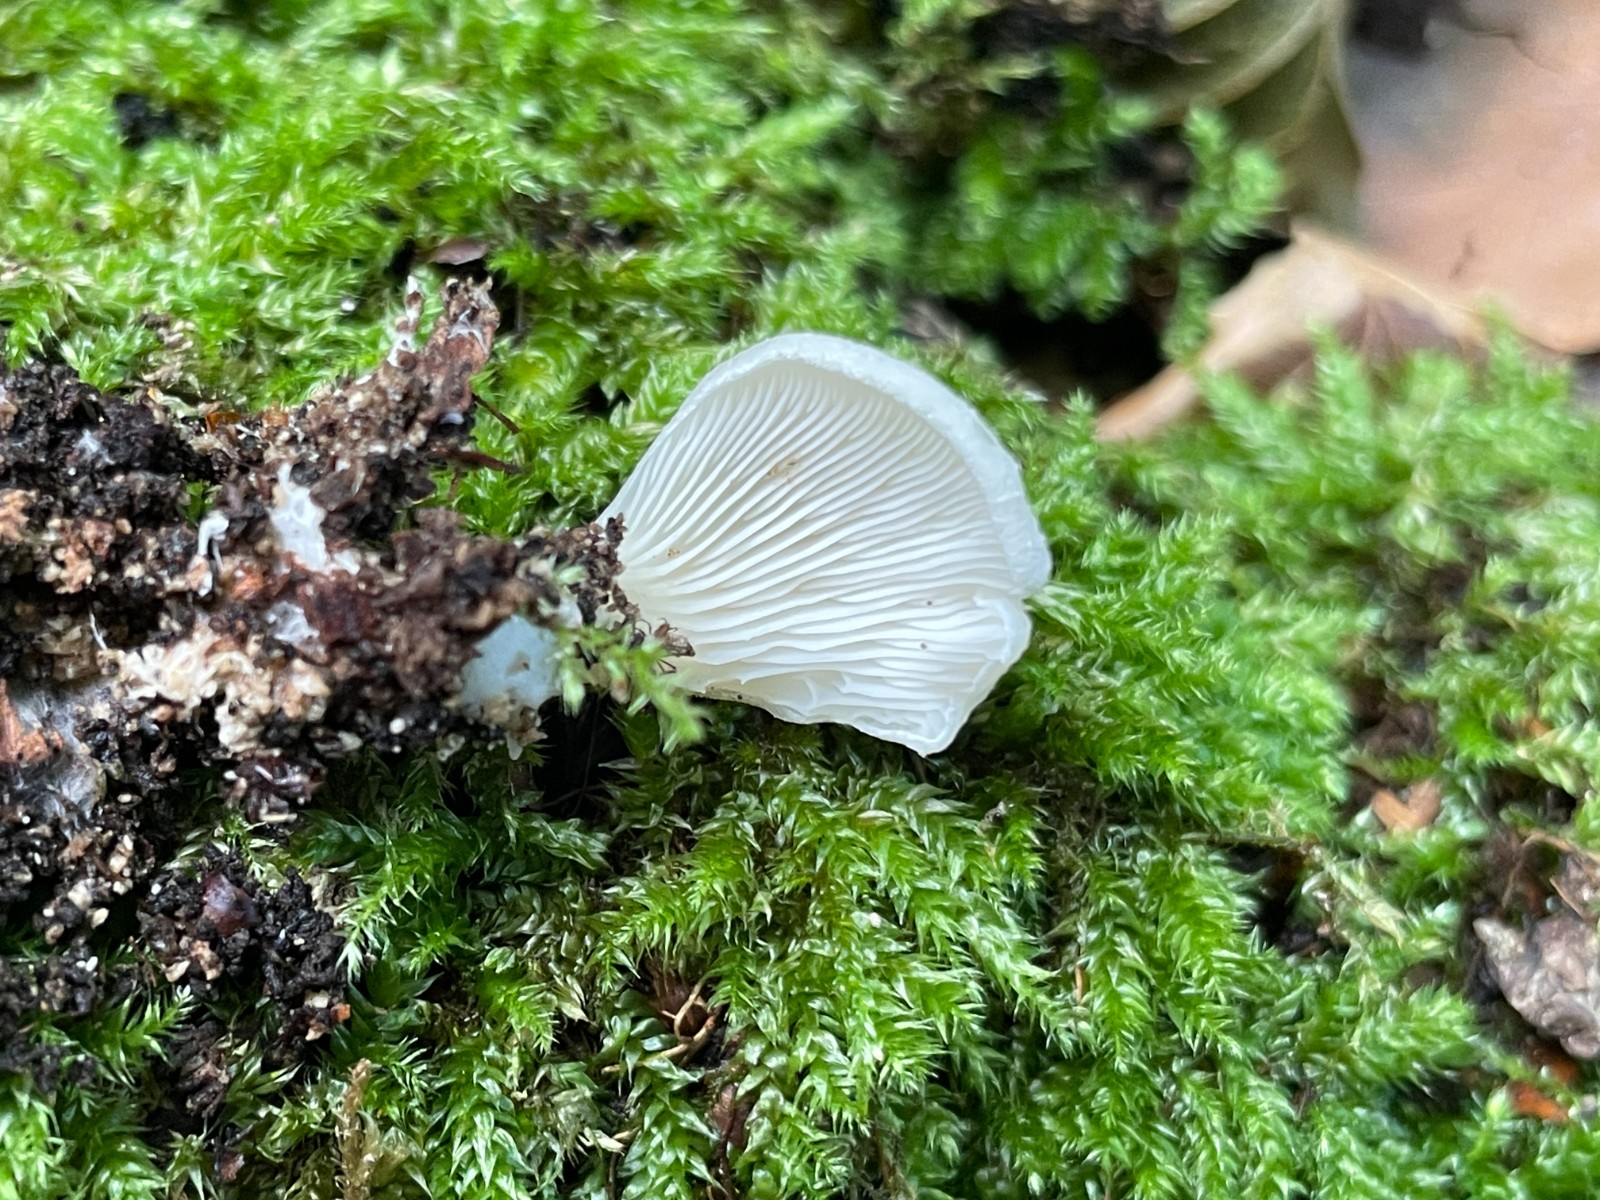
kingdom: Fungi
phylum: Basidiomycota
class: Agaricomycetes
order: Agaricales
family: Pleurotaceae
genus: Hohenbuehelia
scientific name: Hohenbuehelia auriscalpium
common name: spatel-filthat
